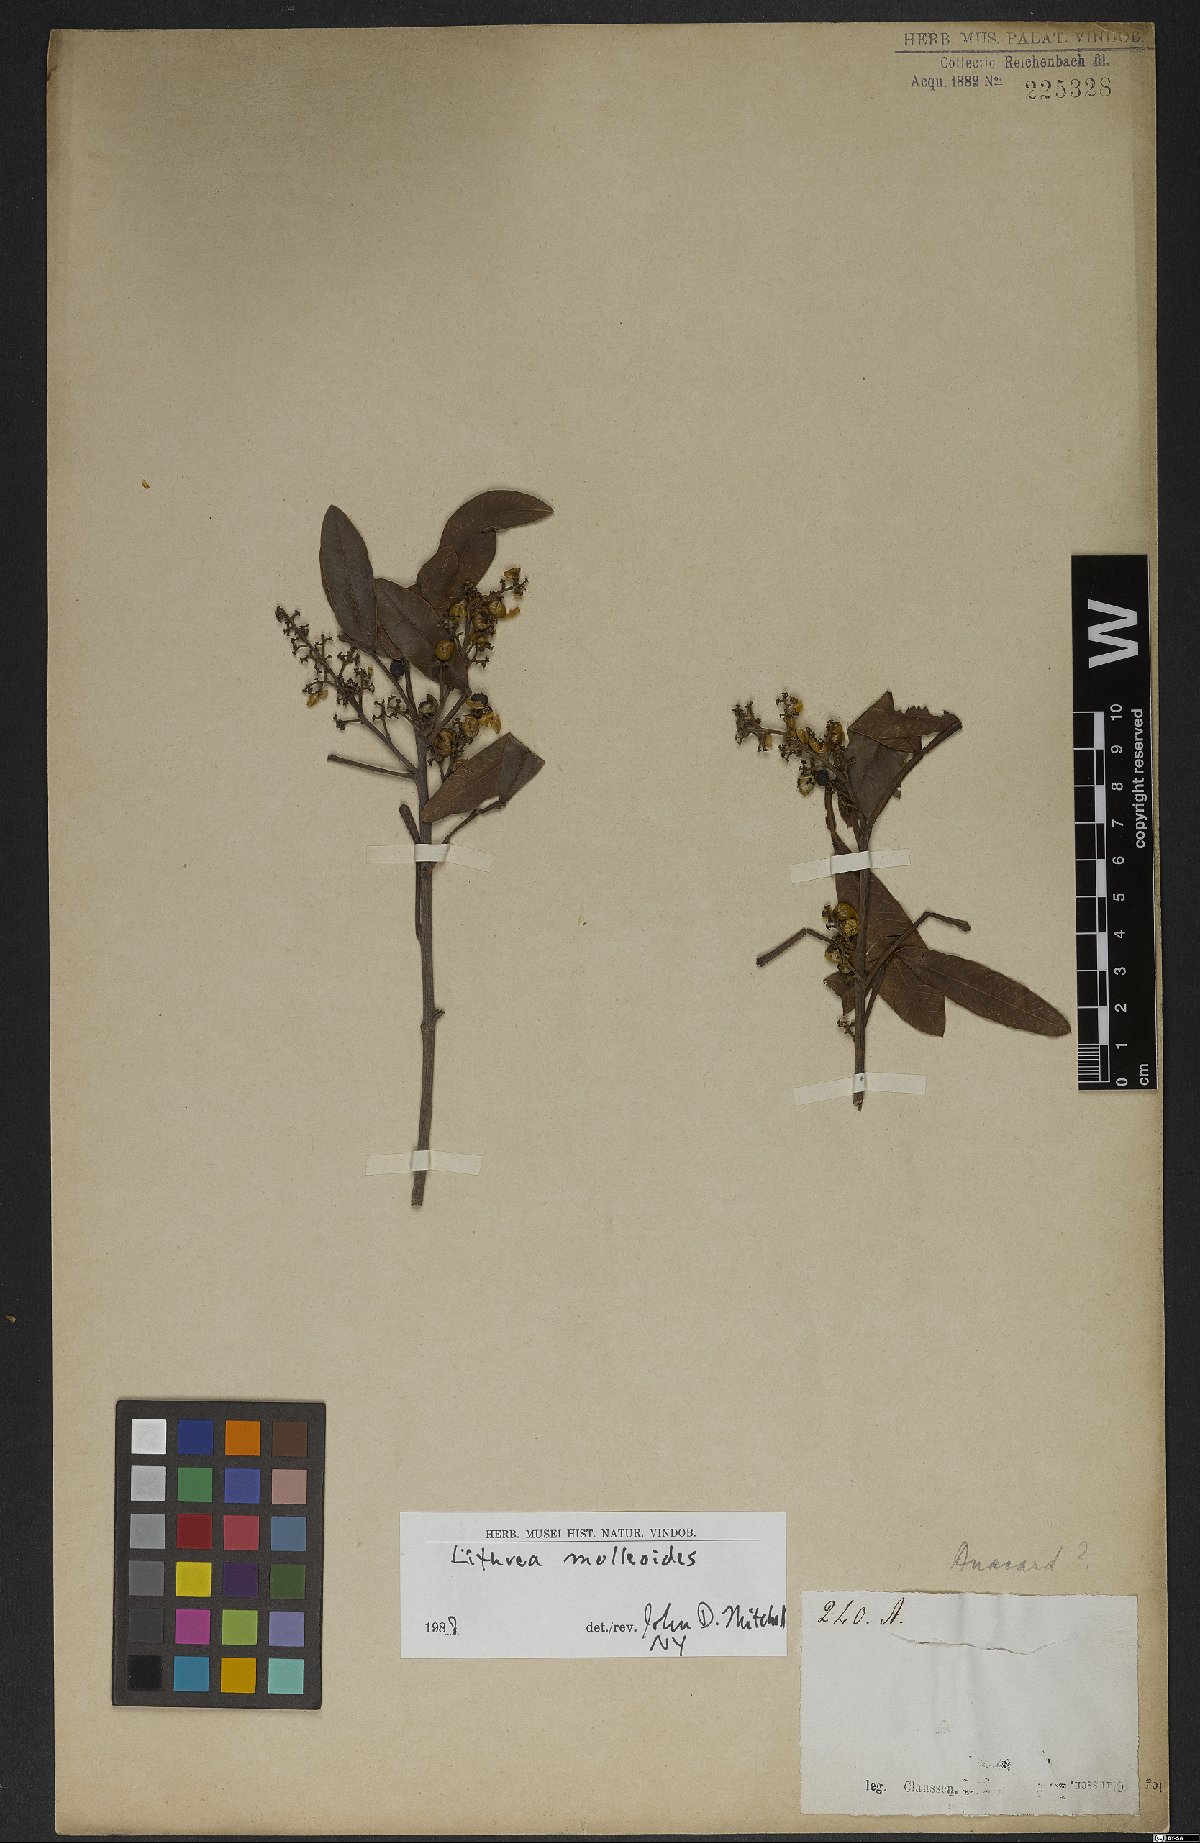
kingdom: Plantae
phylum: Tracheophyta
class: Magnoliopsida
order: Sapindales
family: Anacardiaceae
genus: Lithraea
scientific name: Lithraea molleoides
